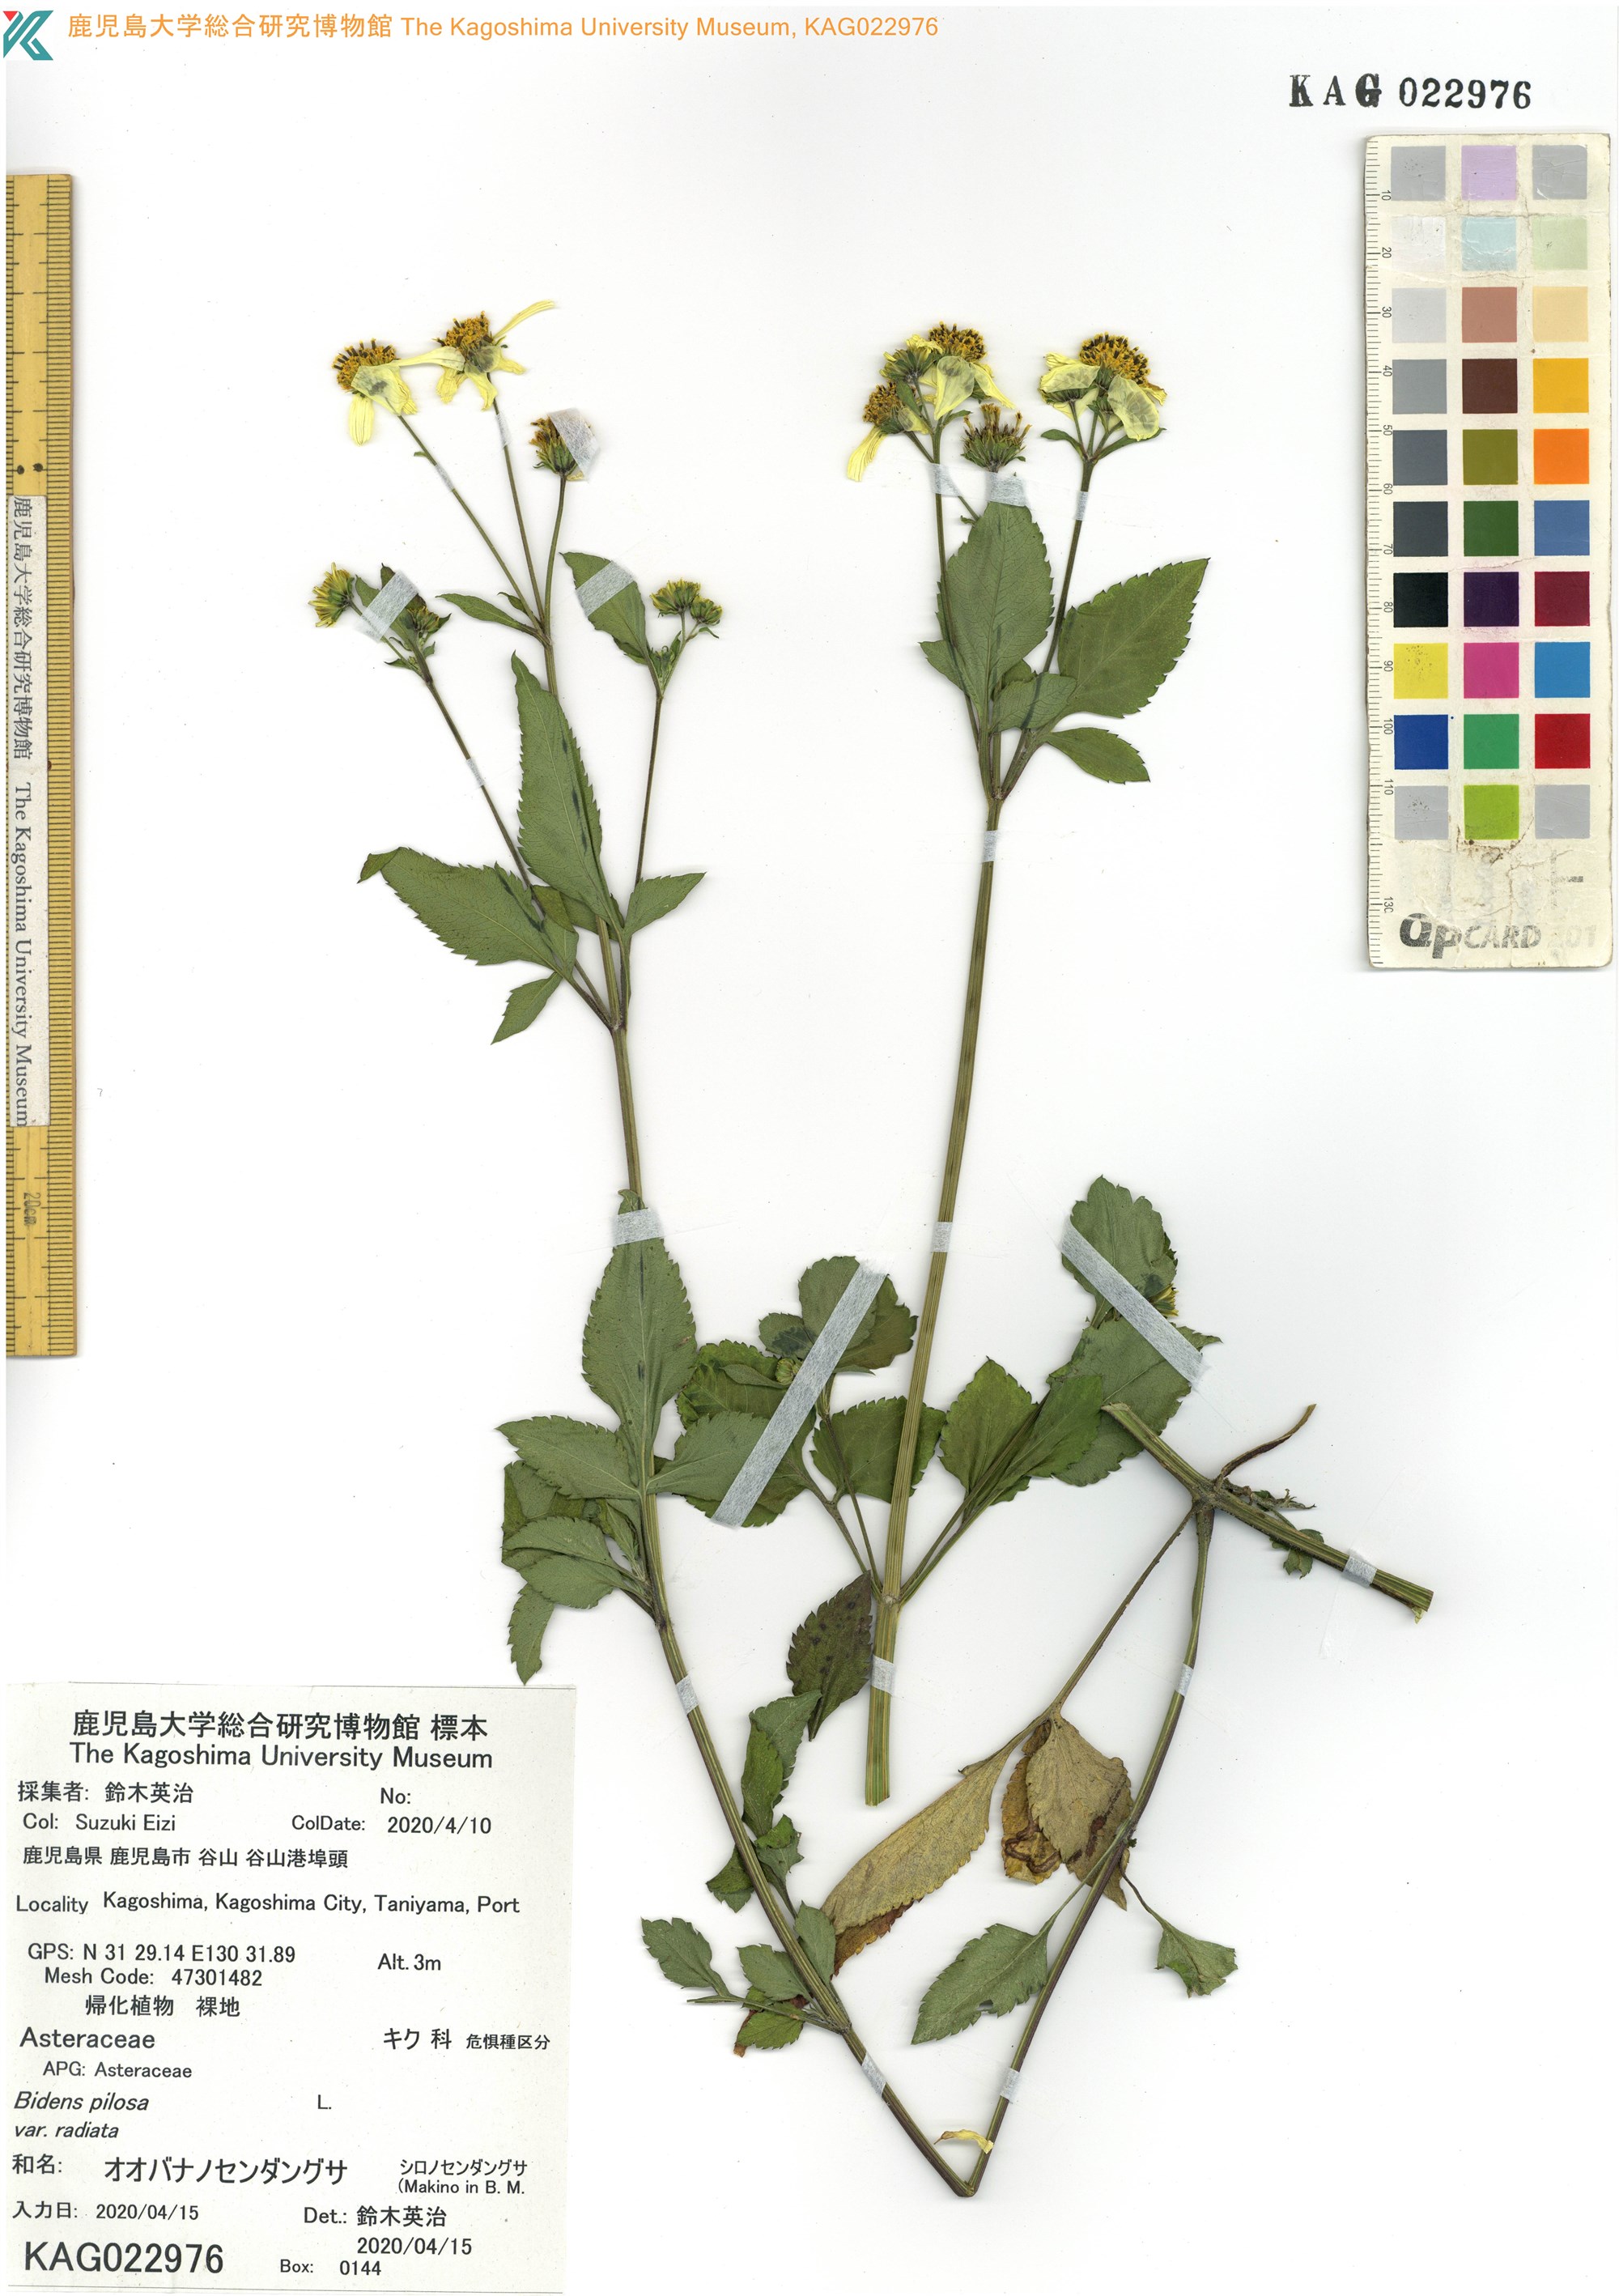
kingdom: Plantae
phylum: Tracheophyta
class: Magnoliopsida
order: Asterales
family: Asteraceae
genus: Bidens
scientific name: Bidens pilosa
